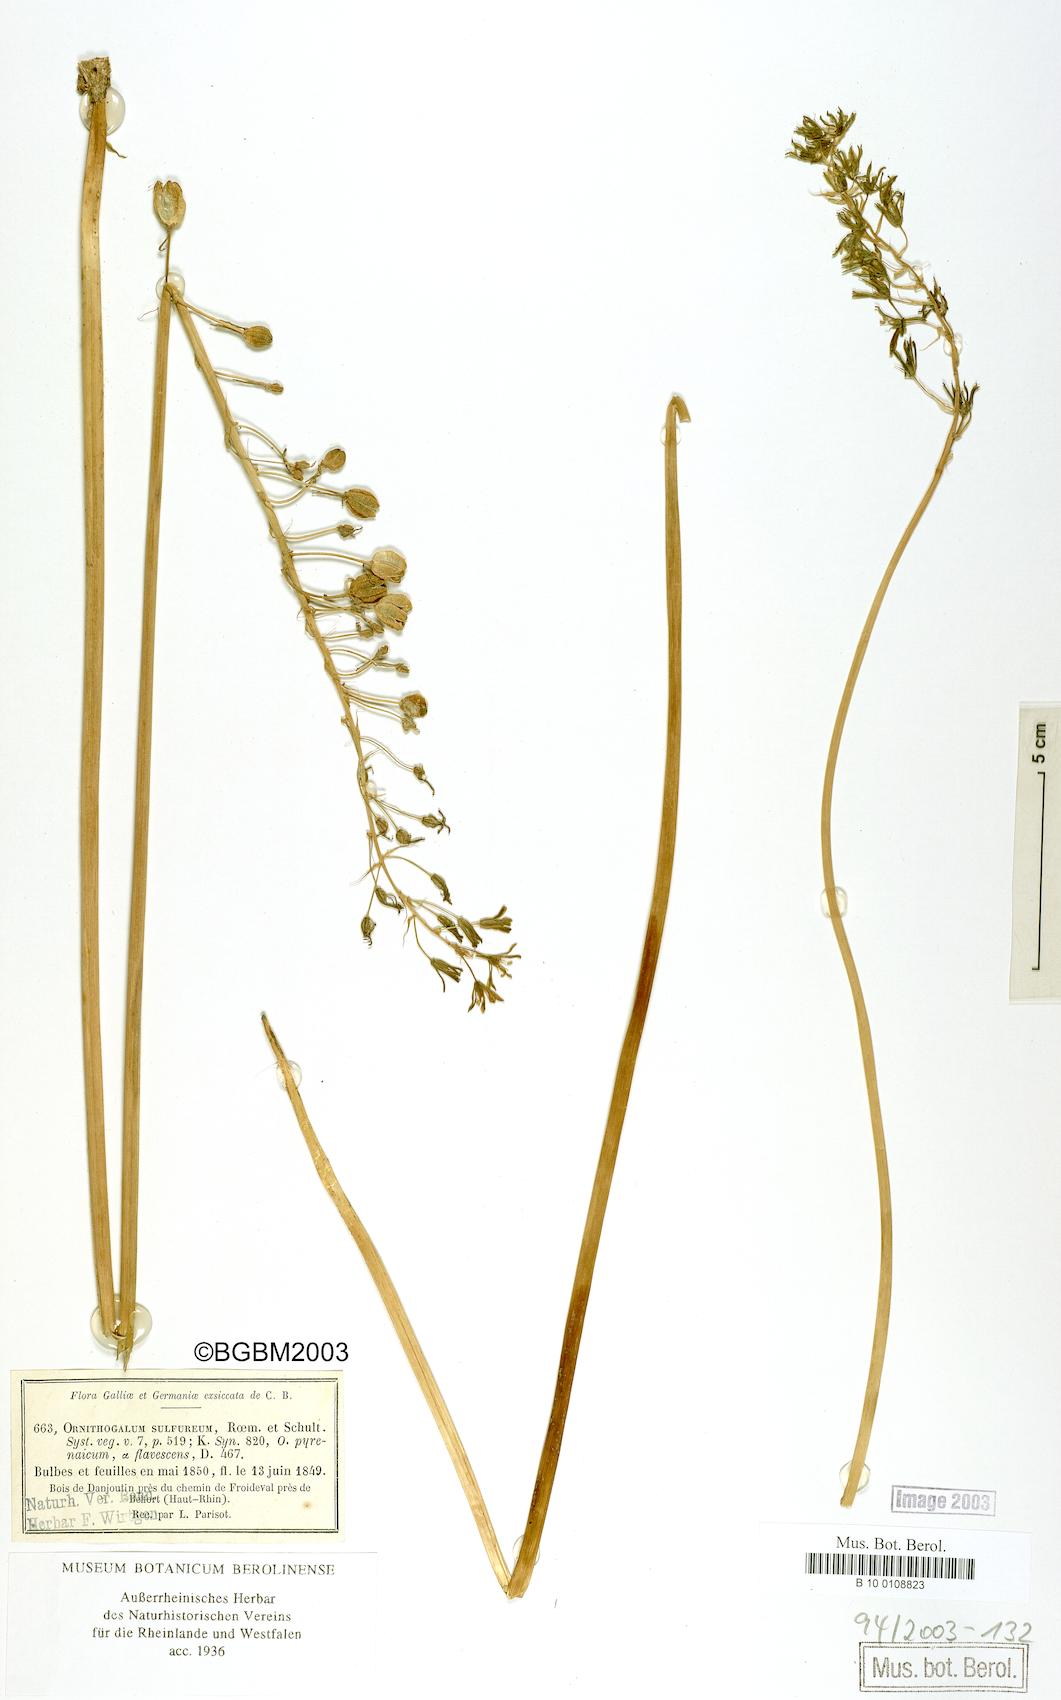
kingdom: Plantae
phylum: Tracheophyta
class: Liliopsida
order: Asparagales
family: Asparagaceae
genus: Ornithogalum
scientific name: Ornithogalum sulfureum
